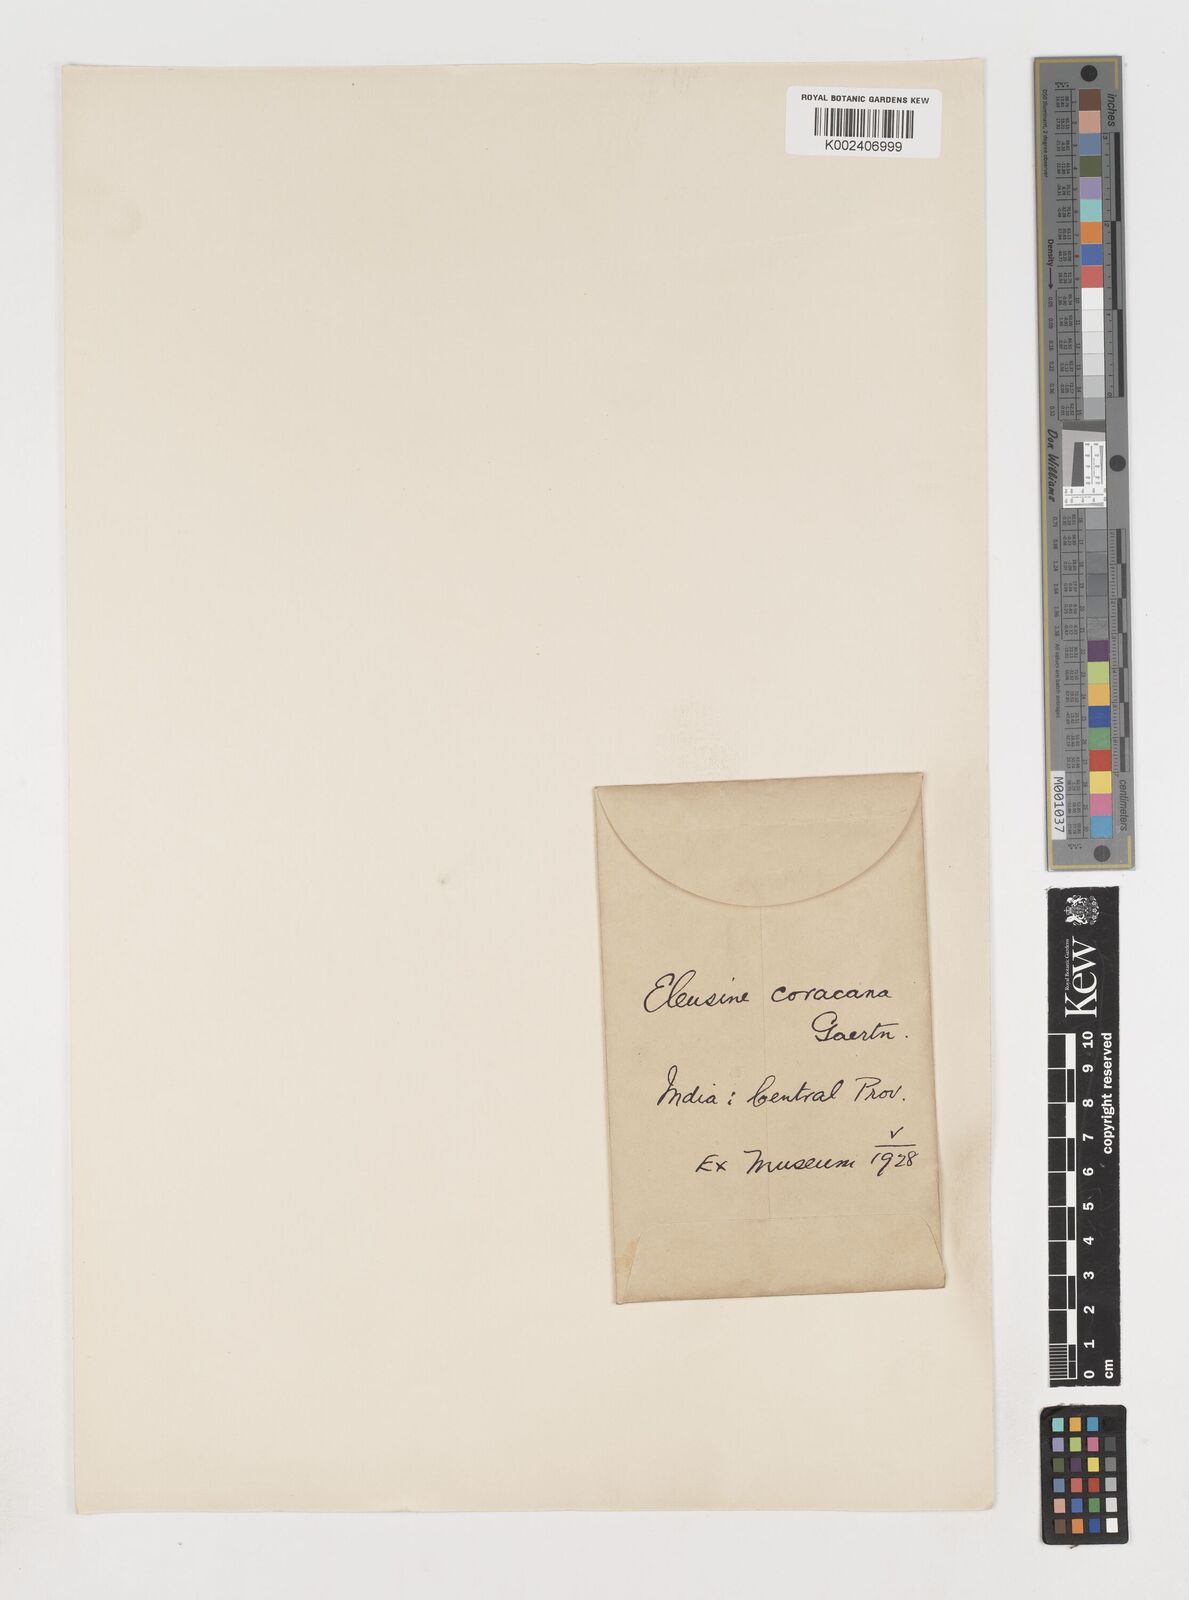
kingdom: Plantae
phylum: Tracheophyta
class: Liliopsida
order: Poales
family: Poaceae
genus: Eleusine
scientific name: Eleusine coracana
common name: Finger millet
